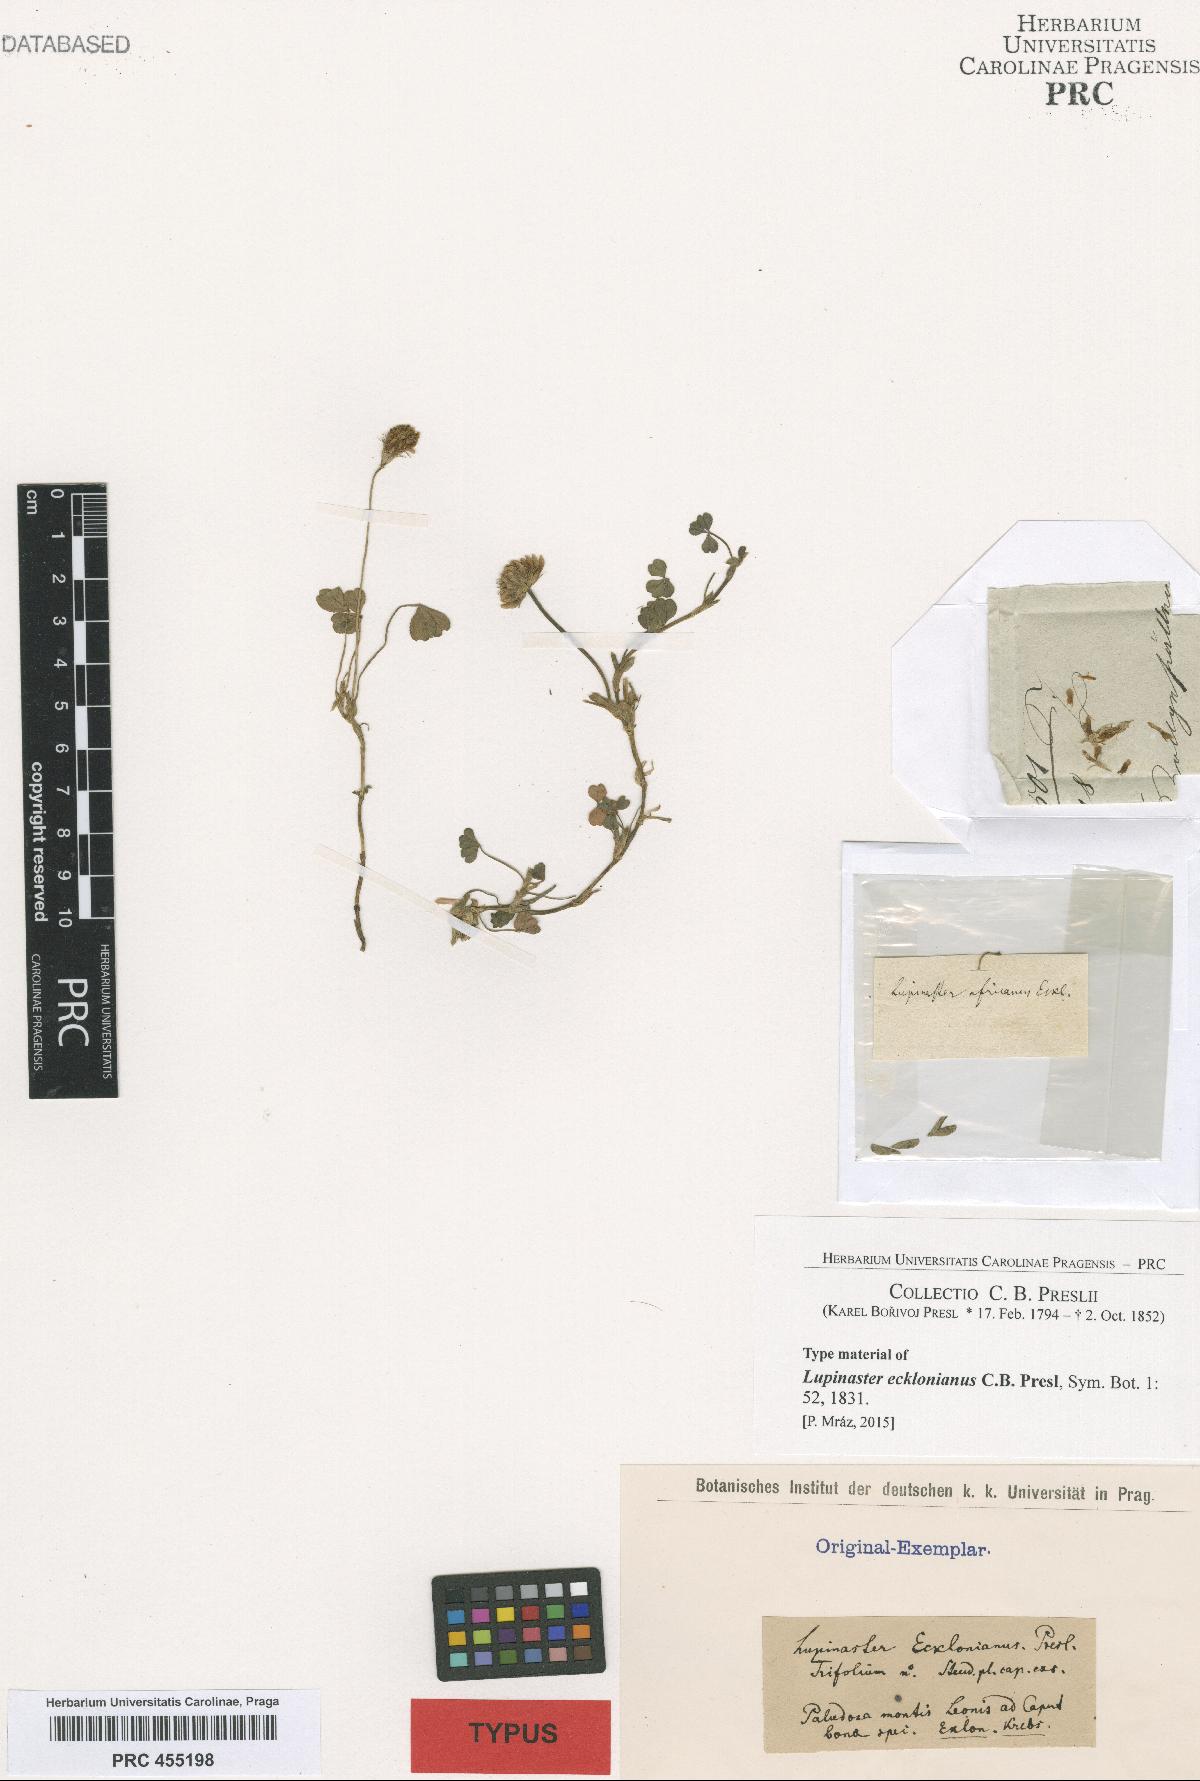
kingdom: Plantae
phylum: Tracheophyta
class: Magnoliopsida
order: Fabales
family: Fabaceae
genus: Trifolium
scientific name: Trifolium burchellianum
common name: Burchell's clover
